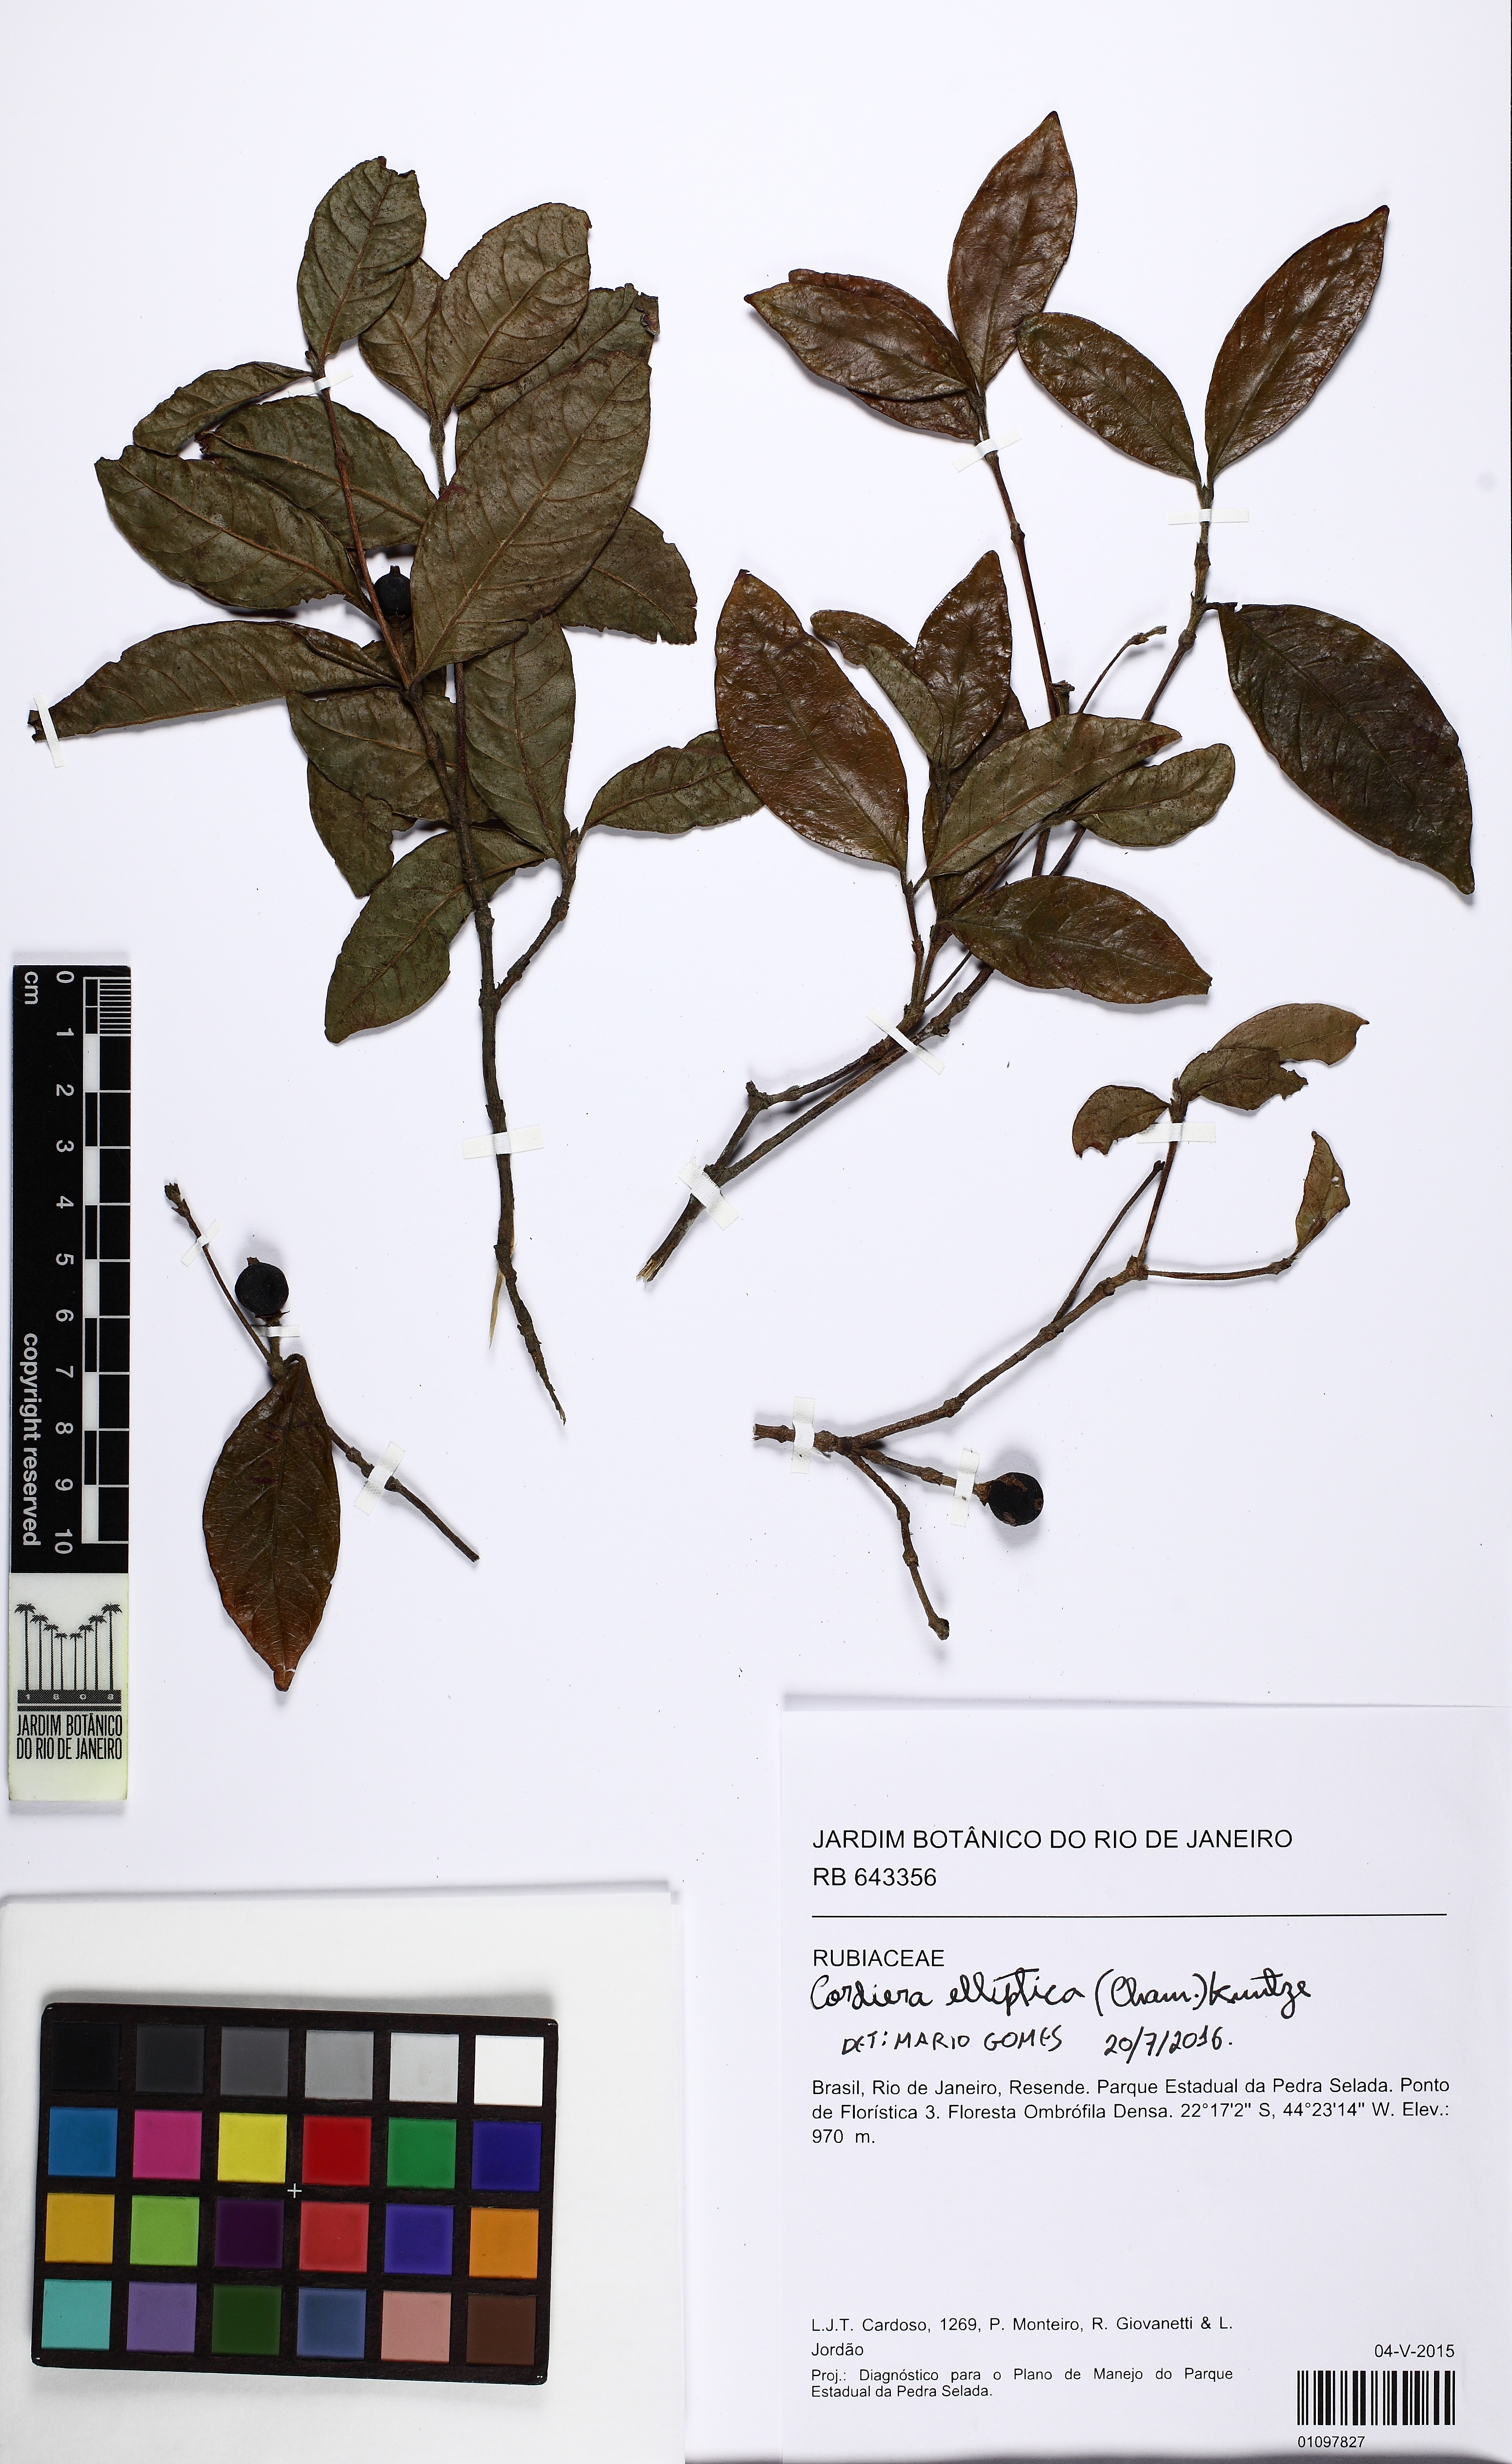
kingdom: Plantae
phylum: Tracheophyta
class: Magnoliopsida
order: Gentianales
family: Rubiaceae
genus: Cordiera
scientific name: Cordiera elliptica
